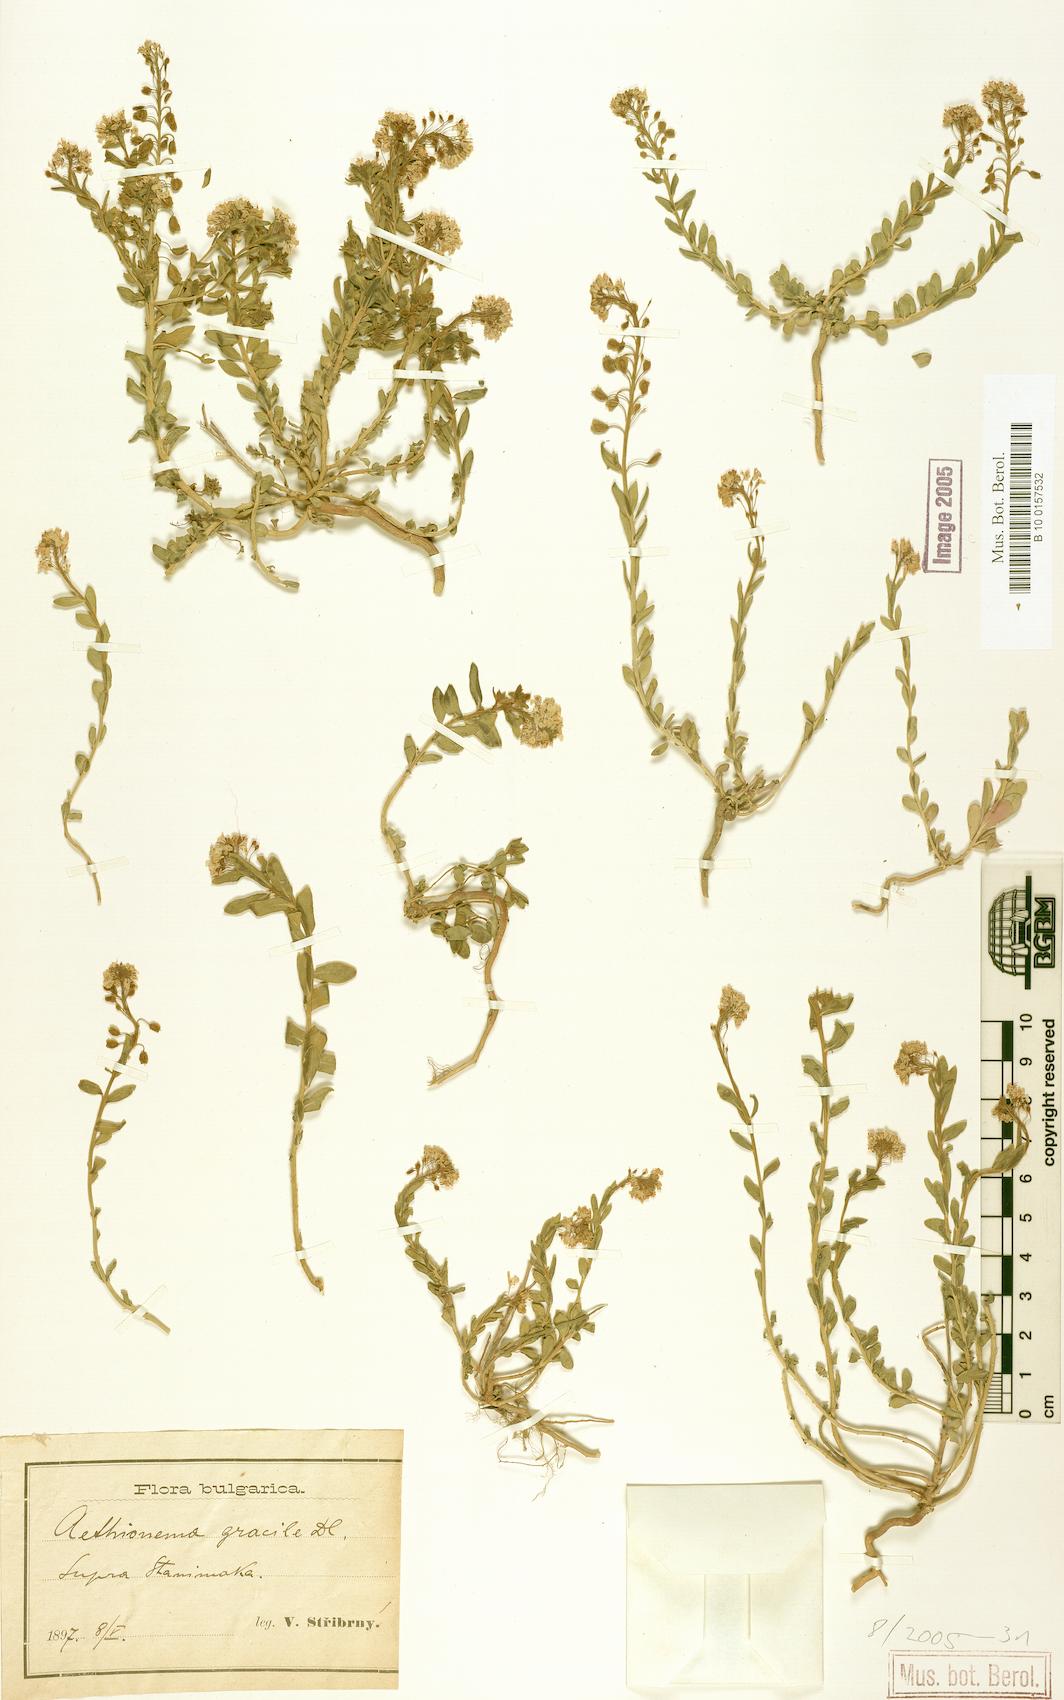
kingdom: Plantae
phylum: Tracheophyta
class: Magnoliopsida
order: Brassicales
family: Brassicaceae
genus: Aethionema
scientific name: Aethionema saxatile
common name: Burnt candytuft
